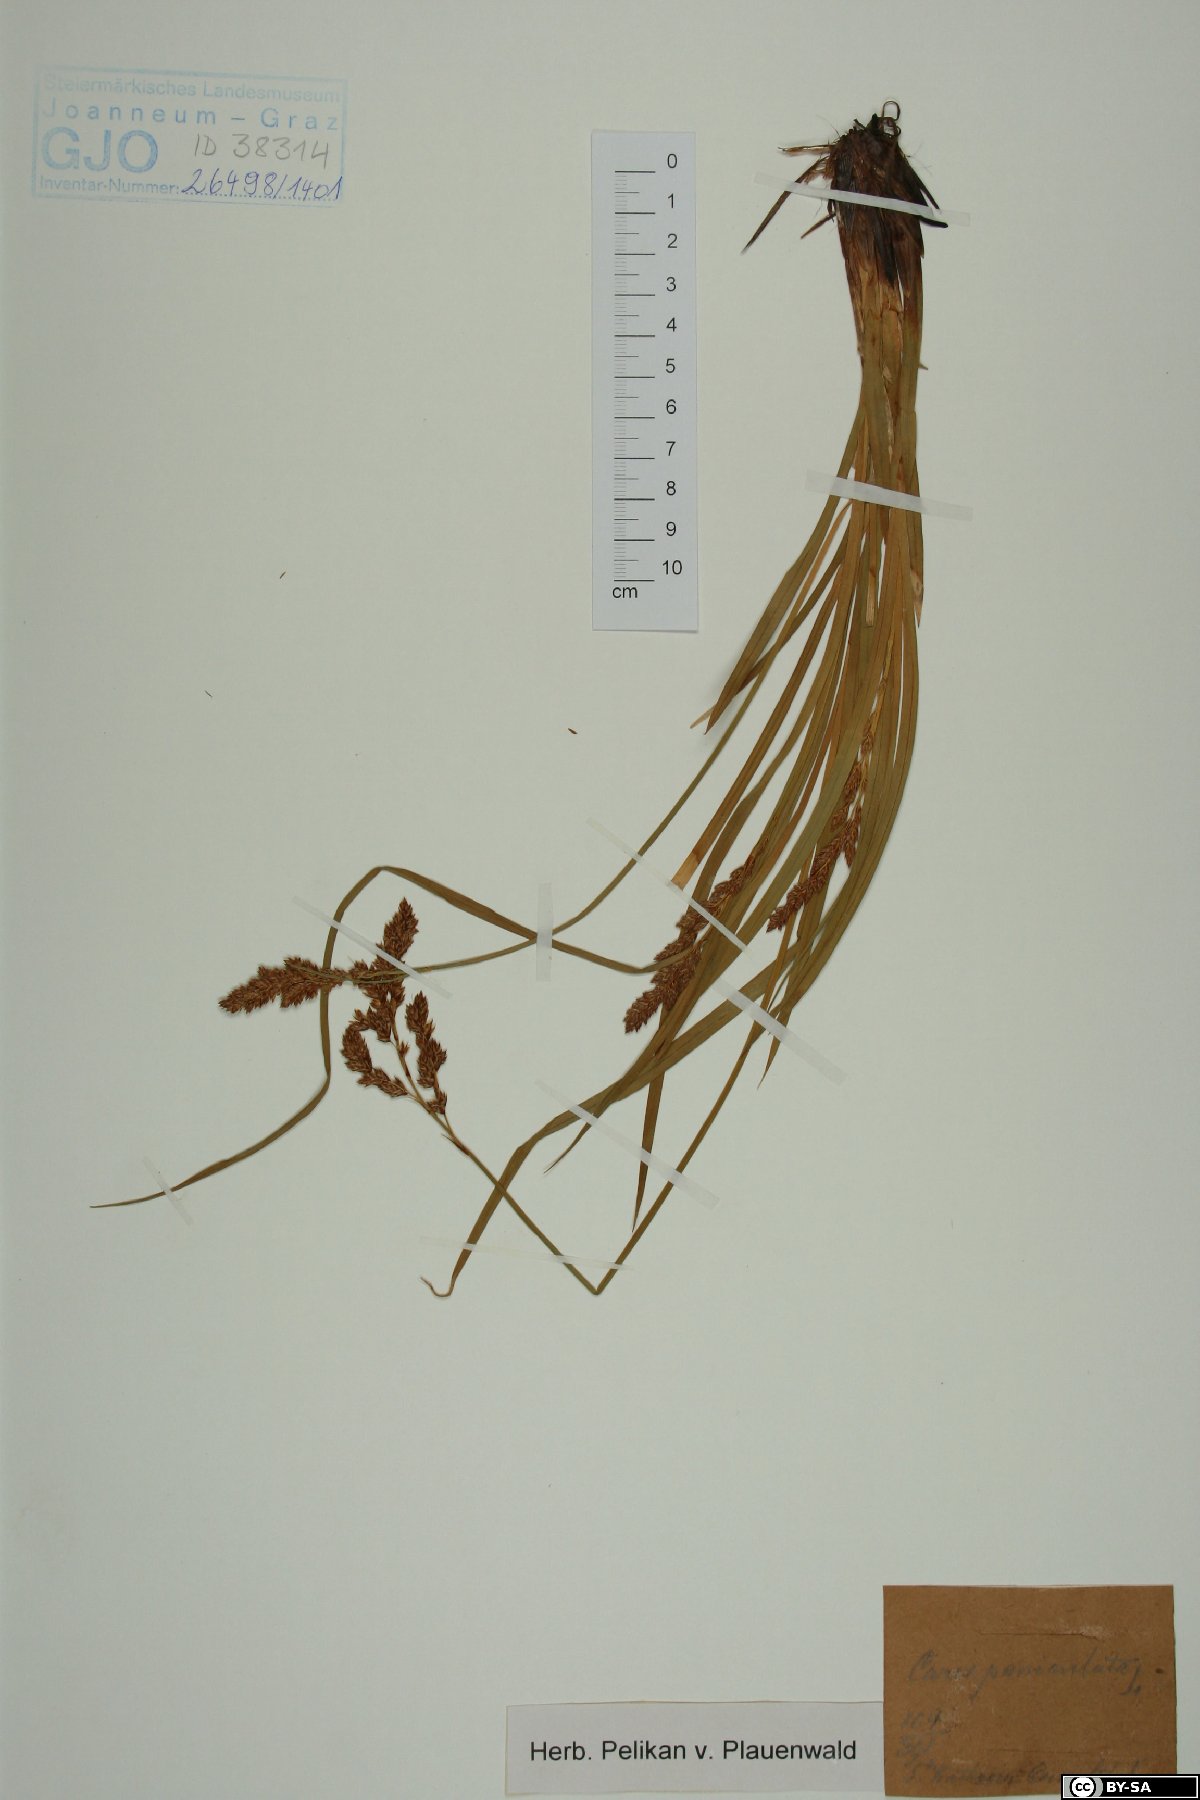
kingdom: Plantae
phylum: Tracheophyta
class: Liliopsida
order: Poales
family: Cyperaceae
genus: Carex
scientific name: Carex paniculata
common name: Greater tussock-sedge
